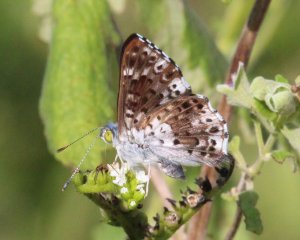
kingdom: Animalia
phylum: Arthropoda
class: Insecta
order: Lepidoptera
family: Riodinidae
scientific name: Riodinidae
